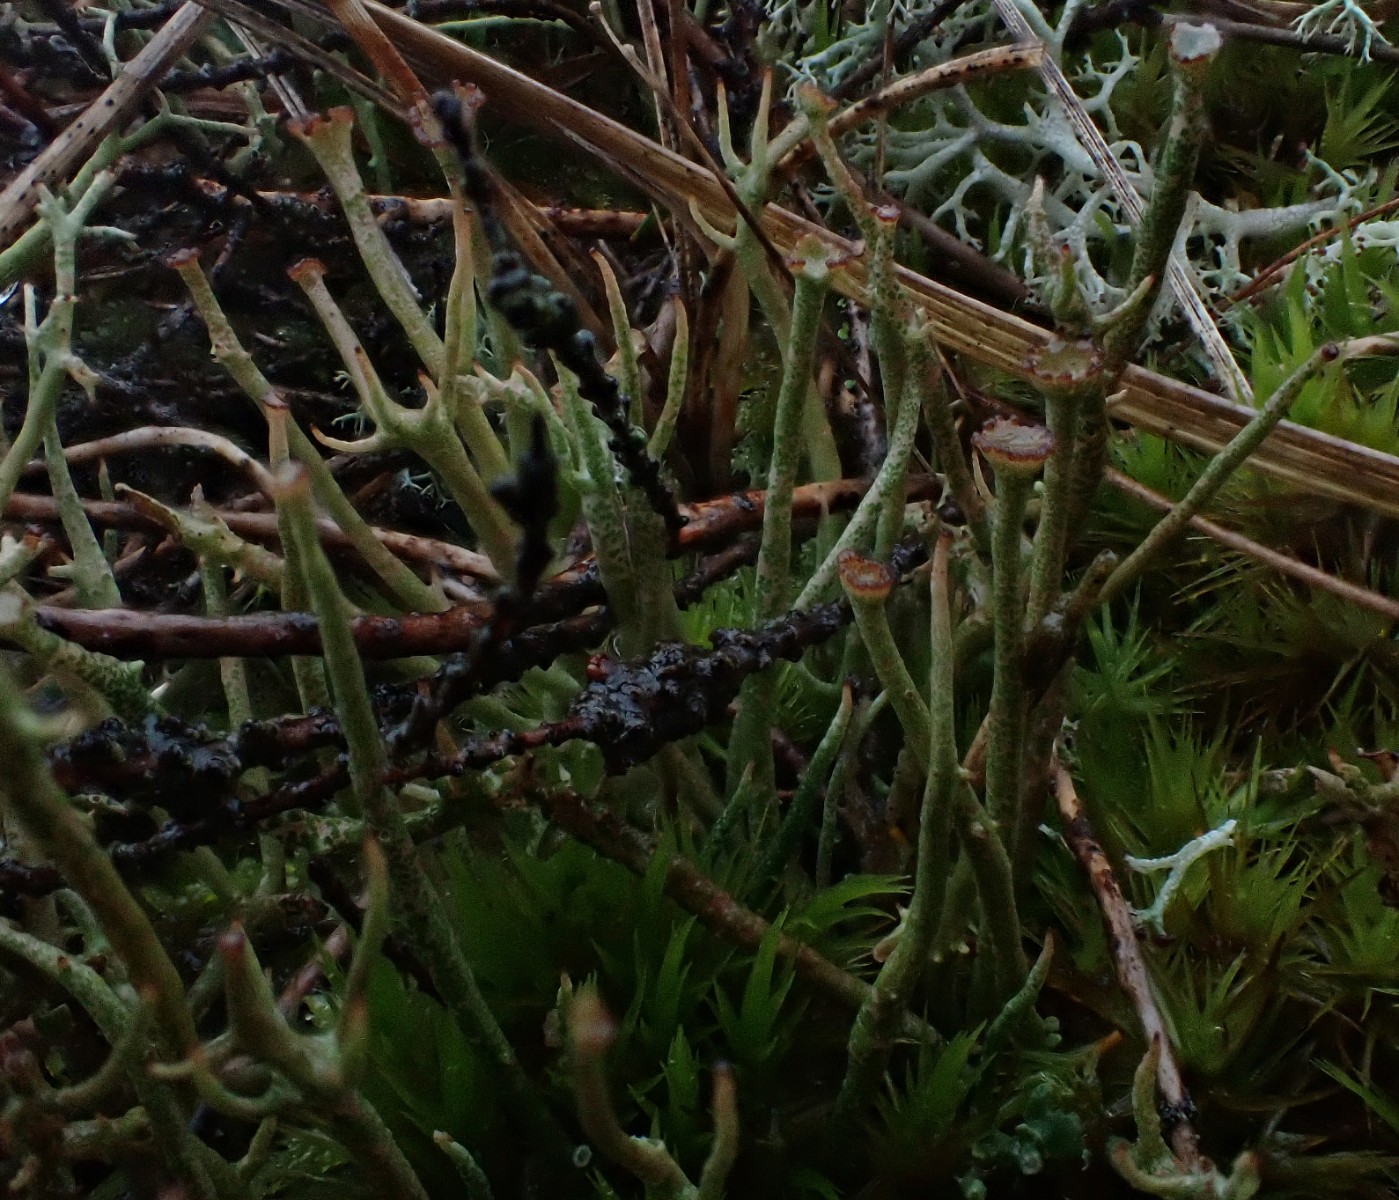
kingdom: Fungi
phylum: Ascomycota
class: Lecanoromycetes
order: Lecanorales
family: Cladoniaceae
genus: Cladonia
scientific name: Cladonia gracilis
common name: slank bægerlav
